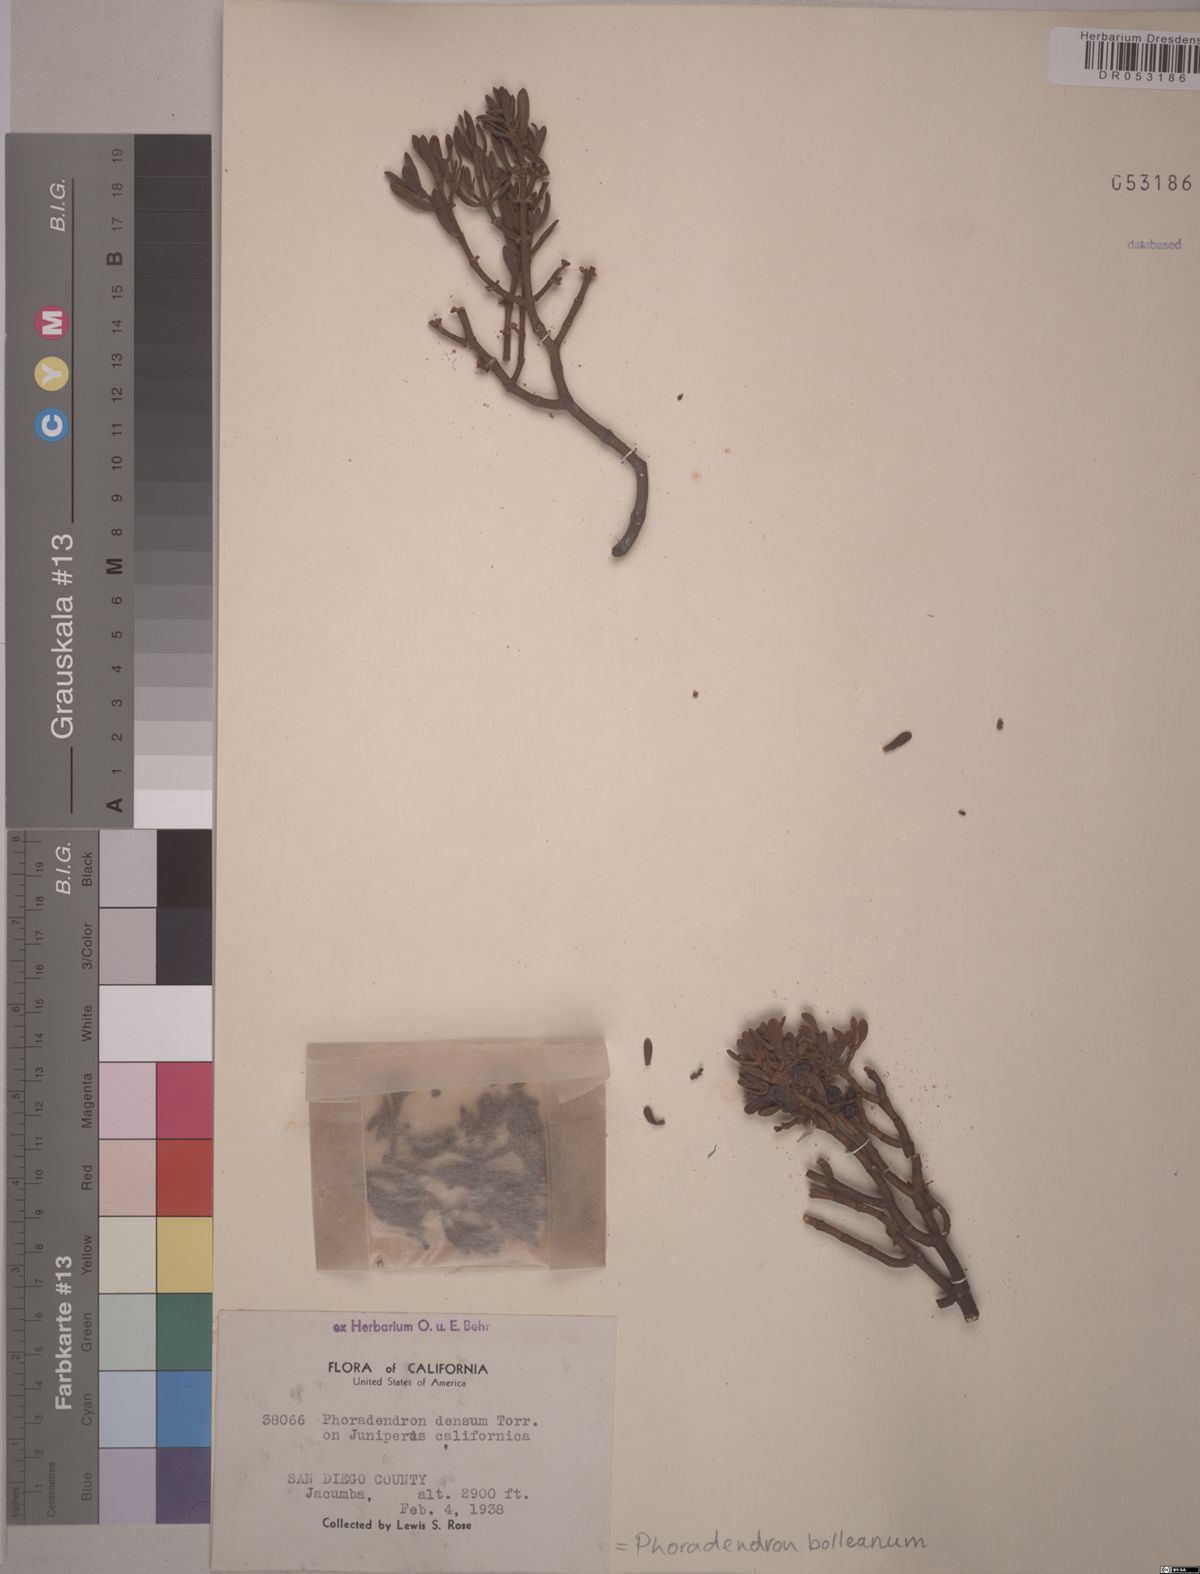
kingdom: Plantae
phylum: Tracheophyta
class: Magnoliopsida
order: Santalales
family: Viscaceae
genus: Phoradendron
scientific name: Phoradendron bolleanum
